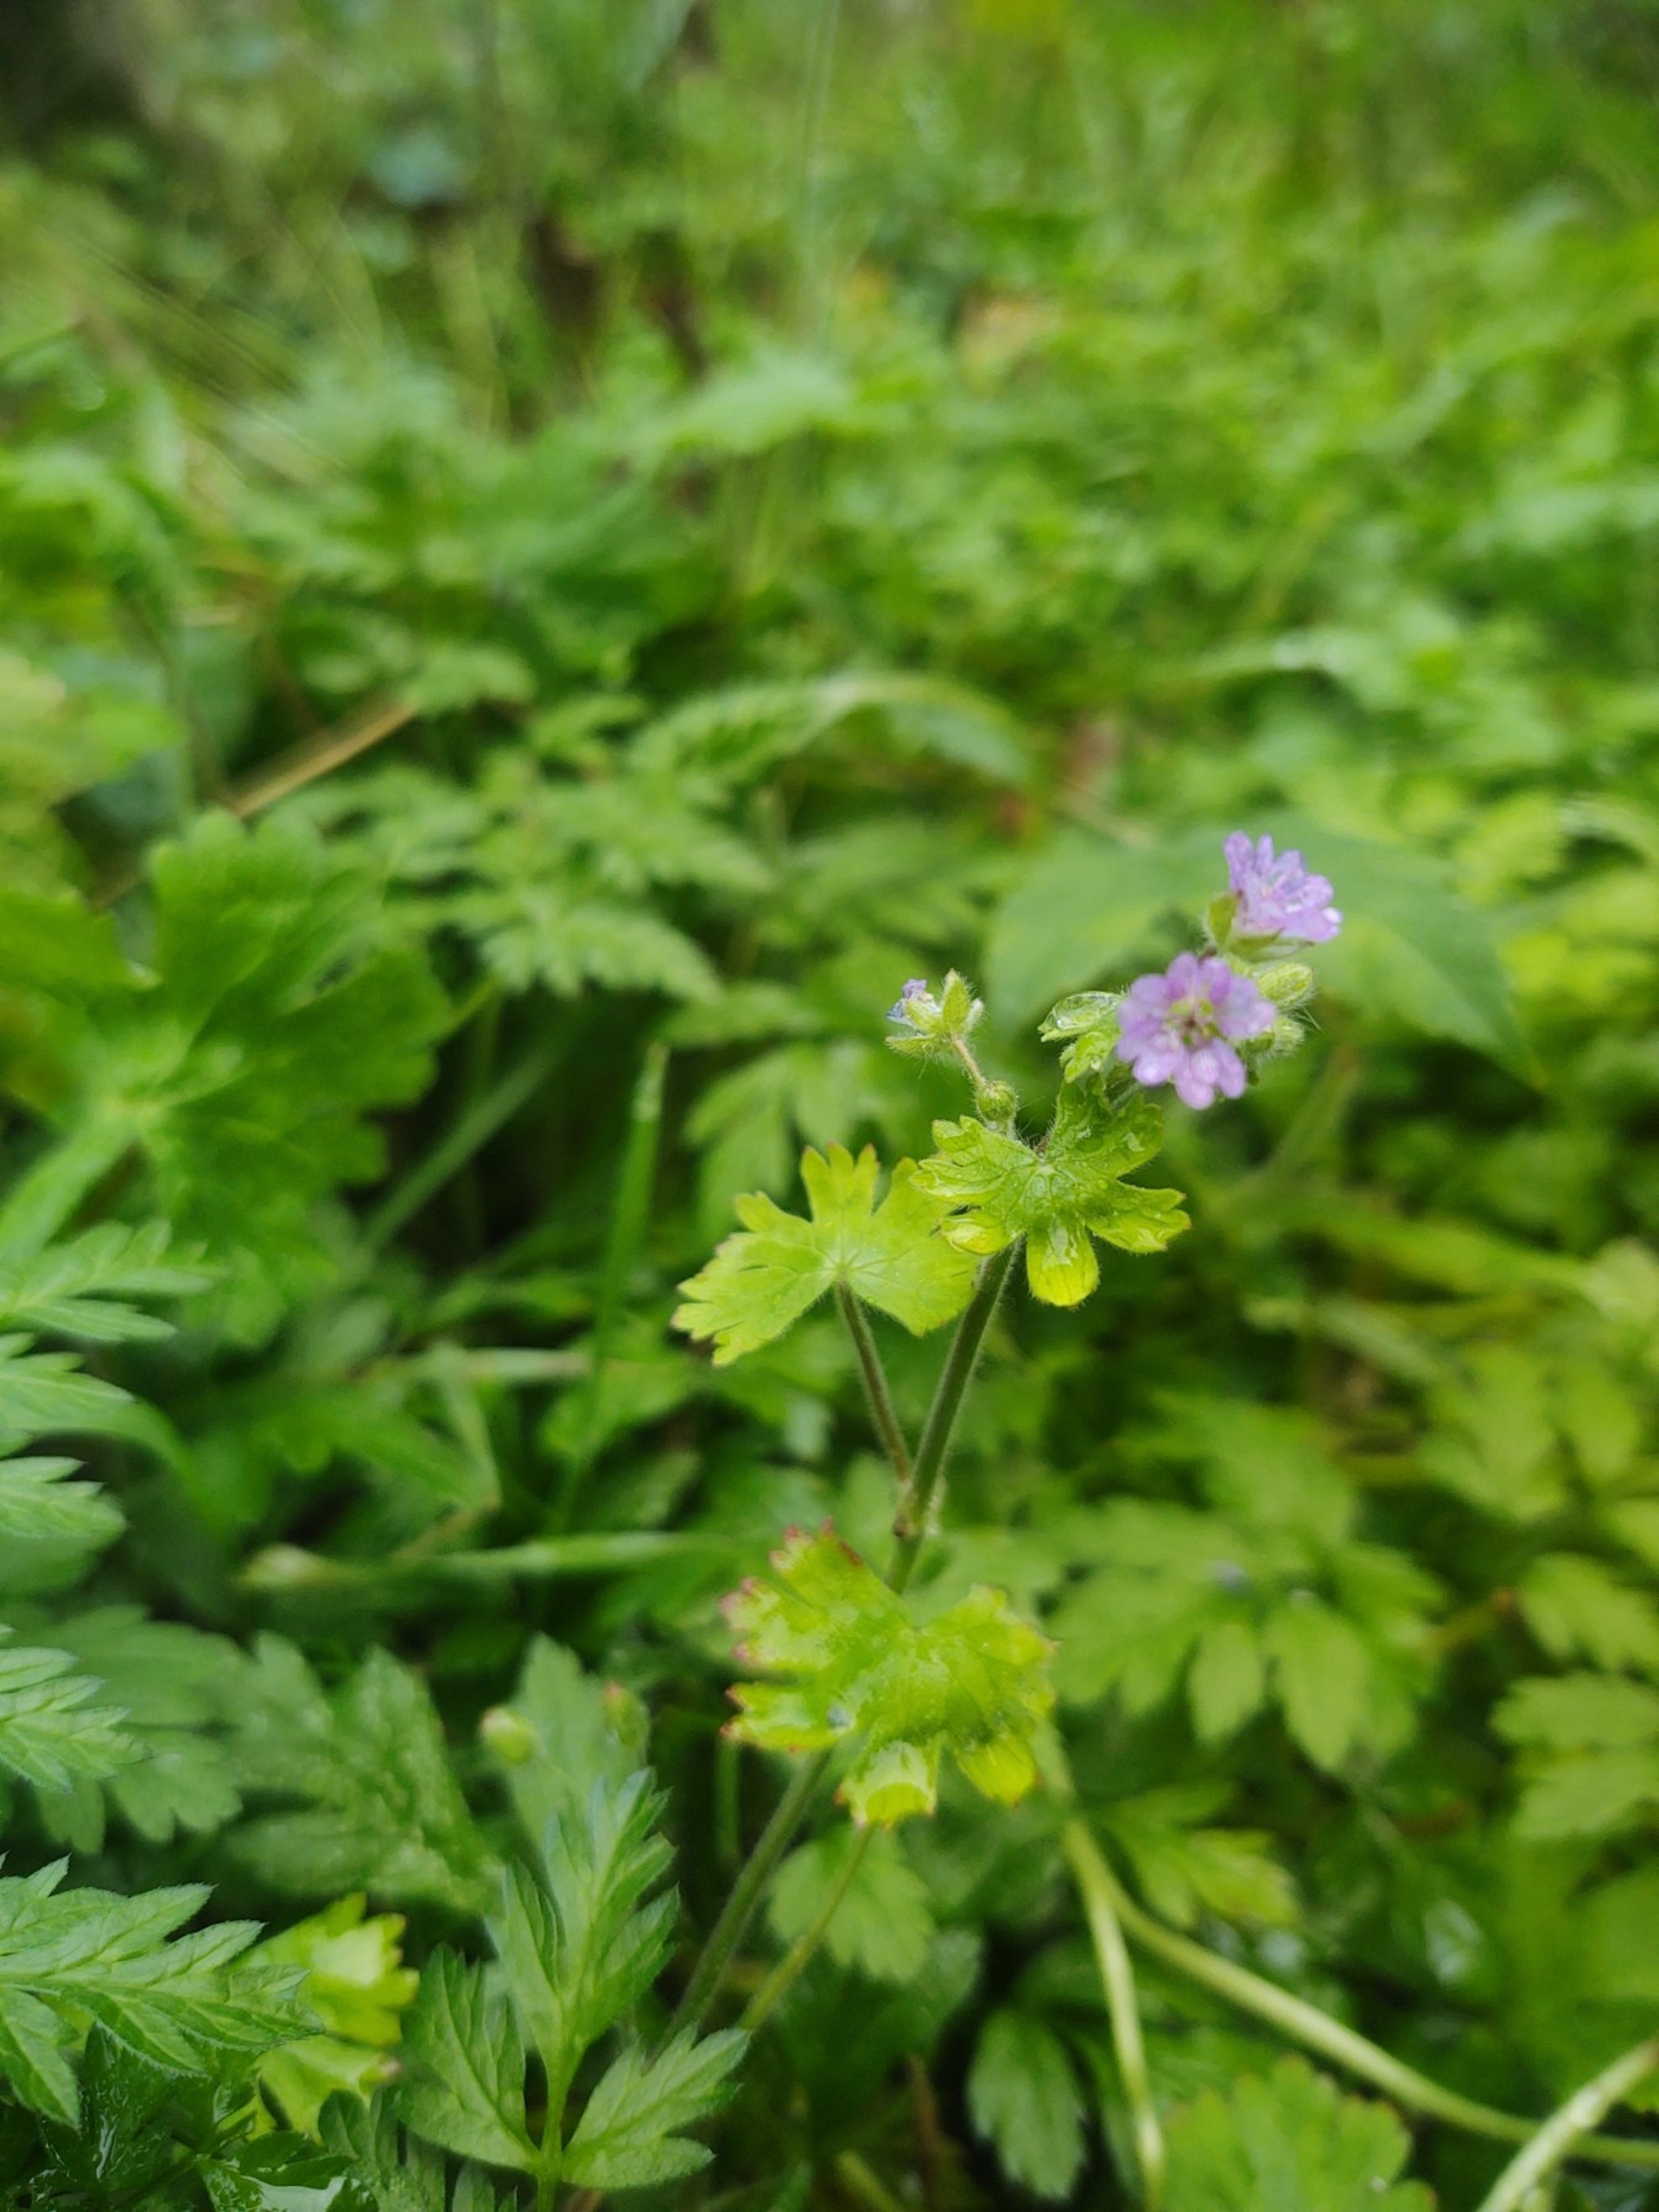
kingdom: Plantae
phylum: Tracheophyta
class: Magnoliopsida
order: Geraniales
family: Geraniaceae
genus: Geranium
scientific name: Geranium molle
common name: Blød storkenæb
